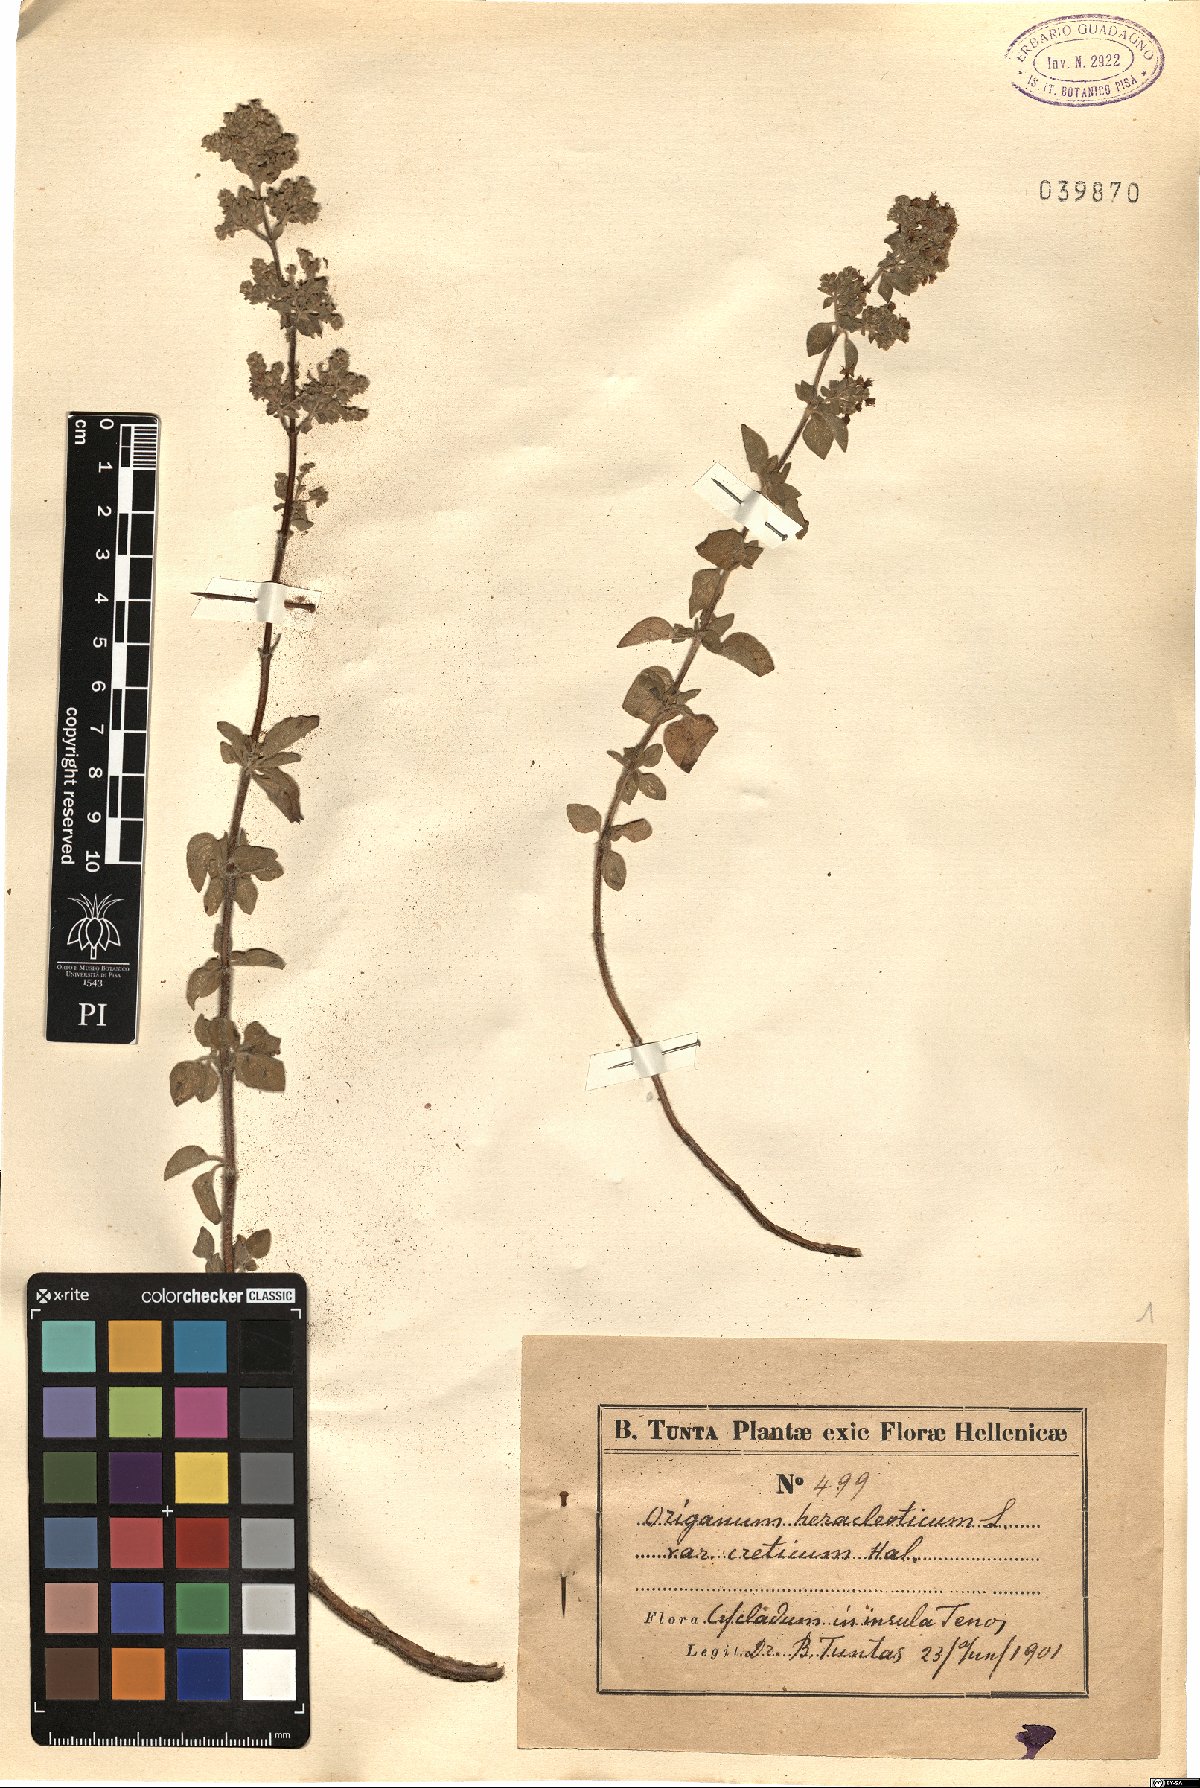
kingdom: Plantae
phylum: Tracheophyta
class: Magnoliopsida
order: Lamiales
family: Lamiaceae
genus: Origanum
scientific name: Origanum
